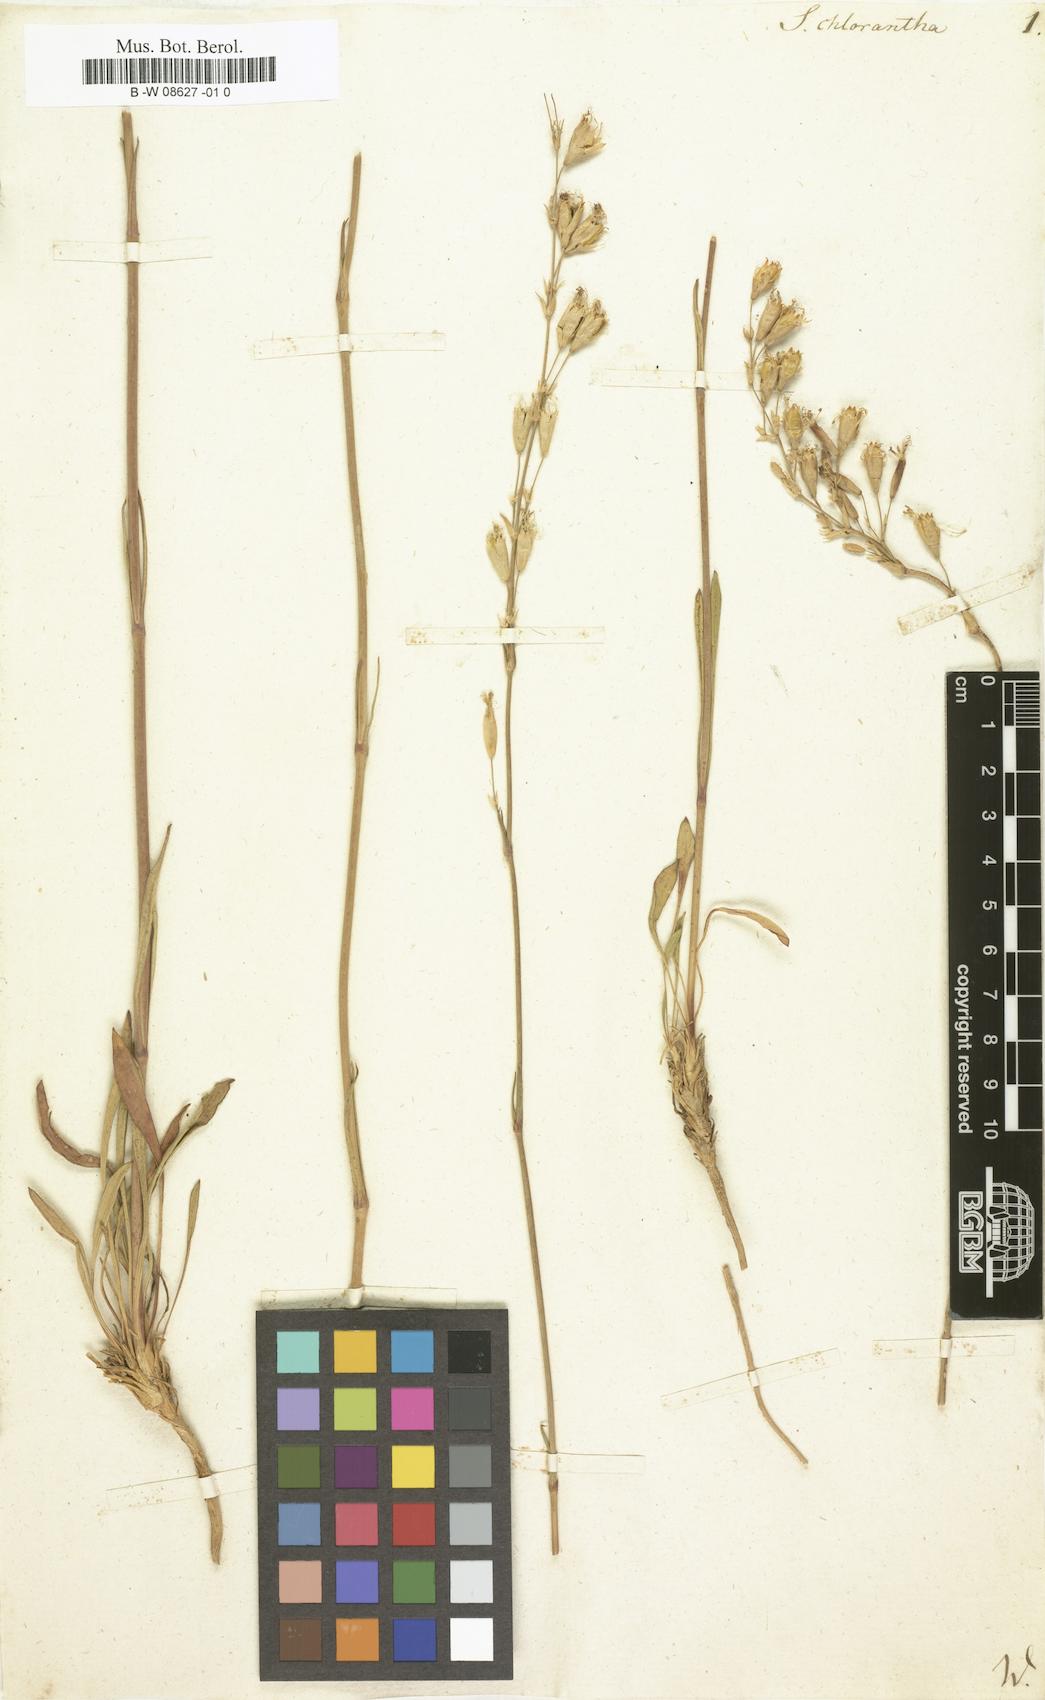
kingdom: Plantae
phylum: Tracheophyta
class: Magnoliopsida
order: Caryophyllales
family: Caryophyllaceae
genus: Silene
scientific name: Silene chlorantha
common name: Yellowgreen catchfly
